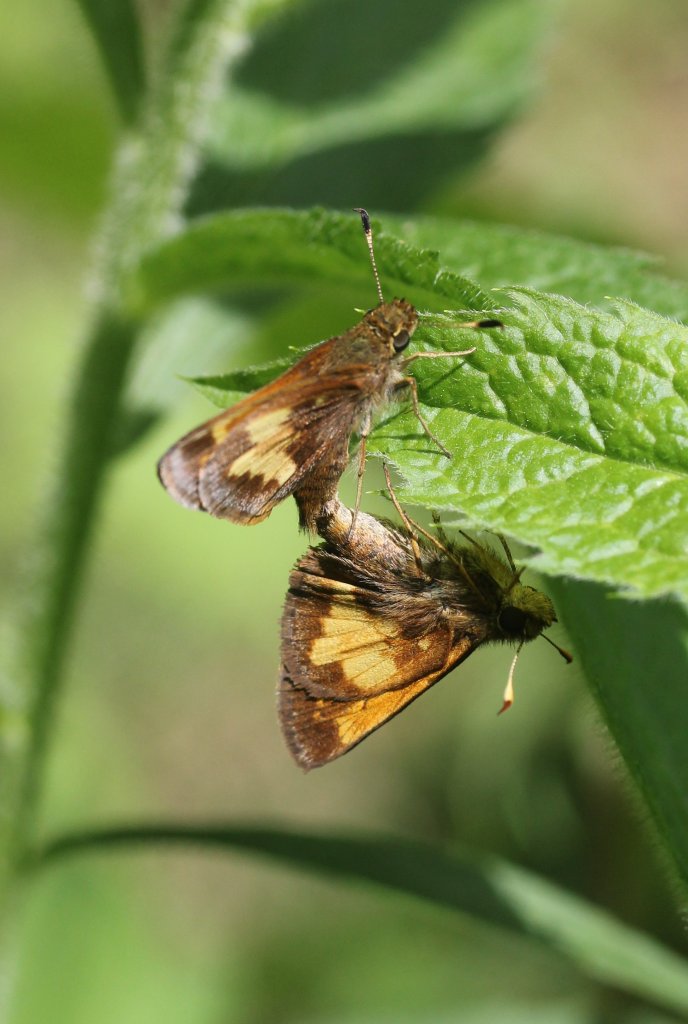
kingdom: Animalia
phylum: Arthropoda
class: Insecta
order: Lepidoptera
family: Hesperiidae
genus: Lon
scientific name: Lon hobomok
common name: Hobomok Skipper
